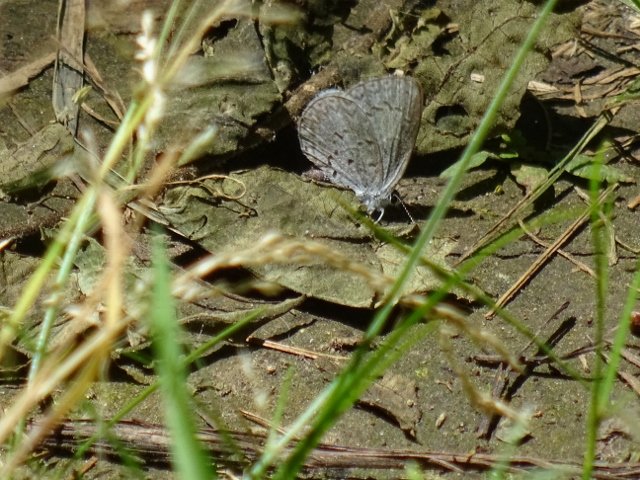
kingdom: Animalia
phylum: Arthropoda
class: Insecta
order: Lepidoptera
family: Lycaenidae
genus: Celastrina
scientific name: Celastrina
